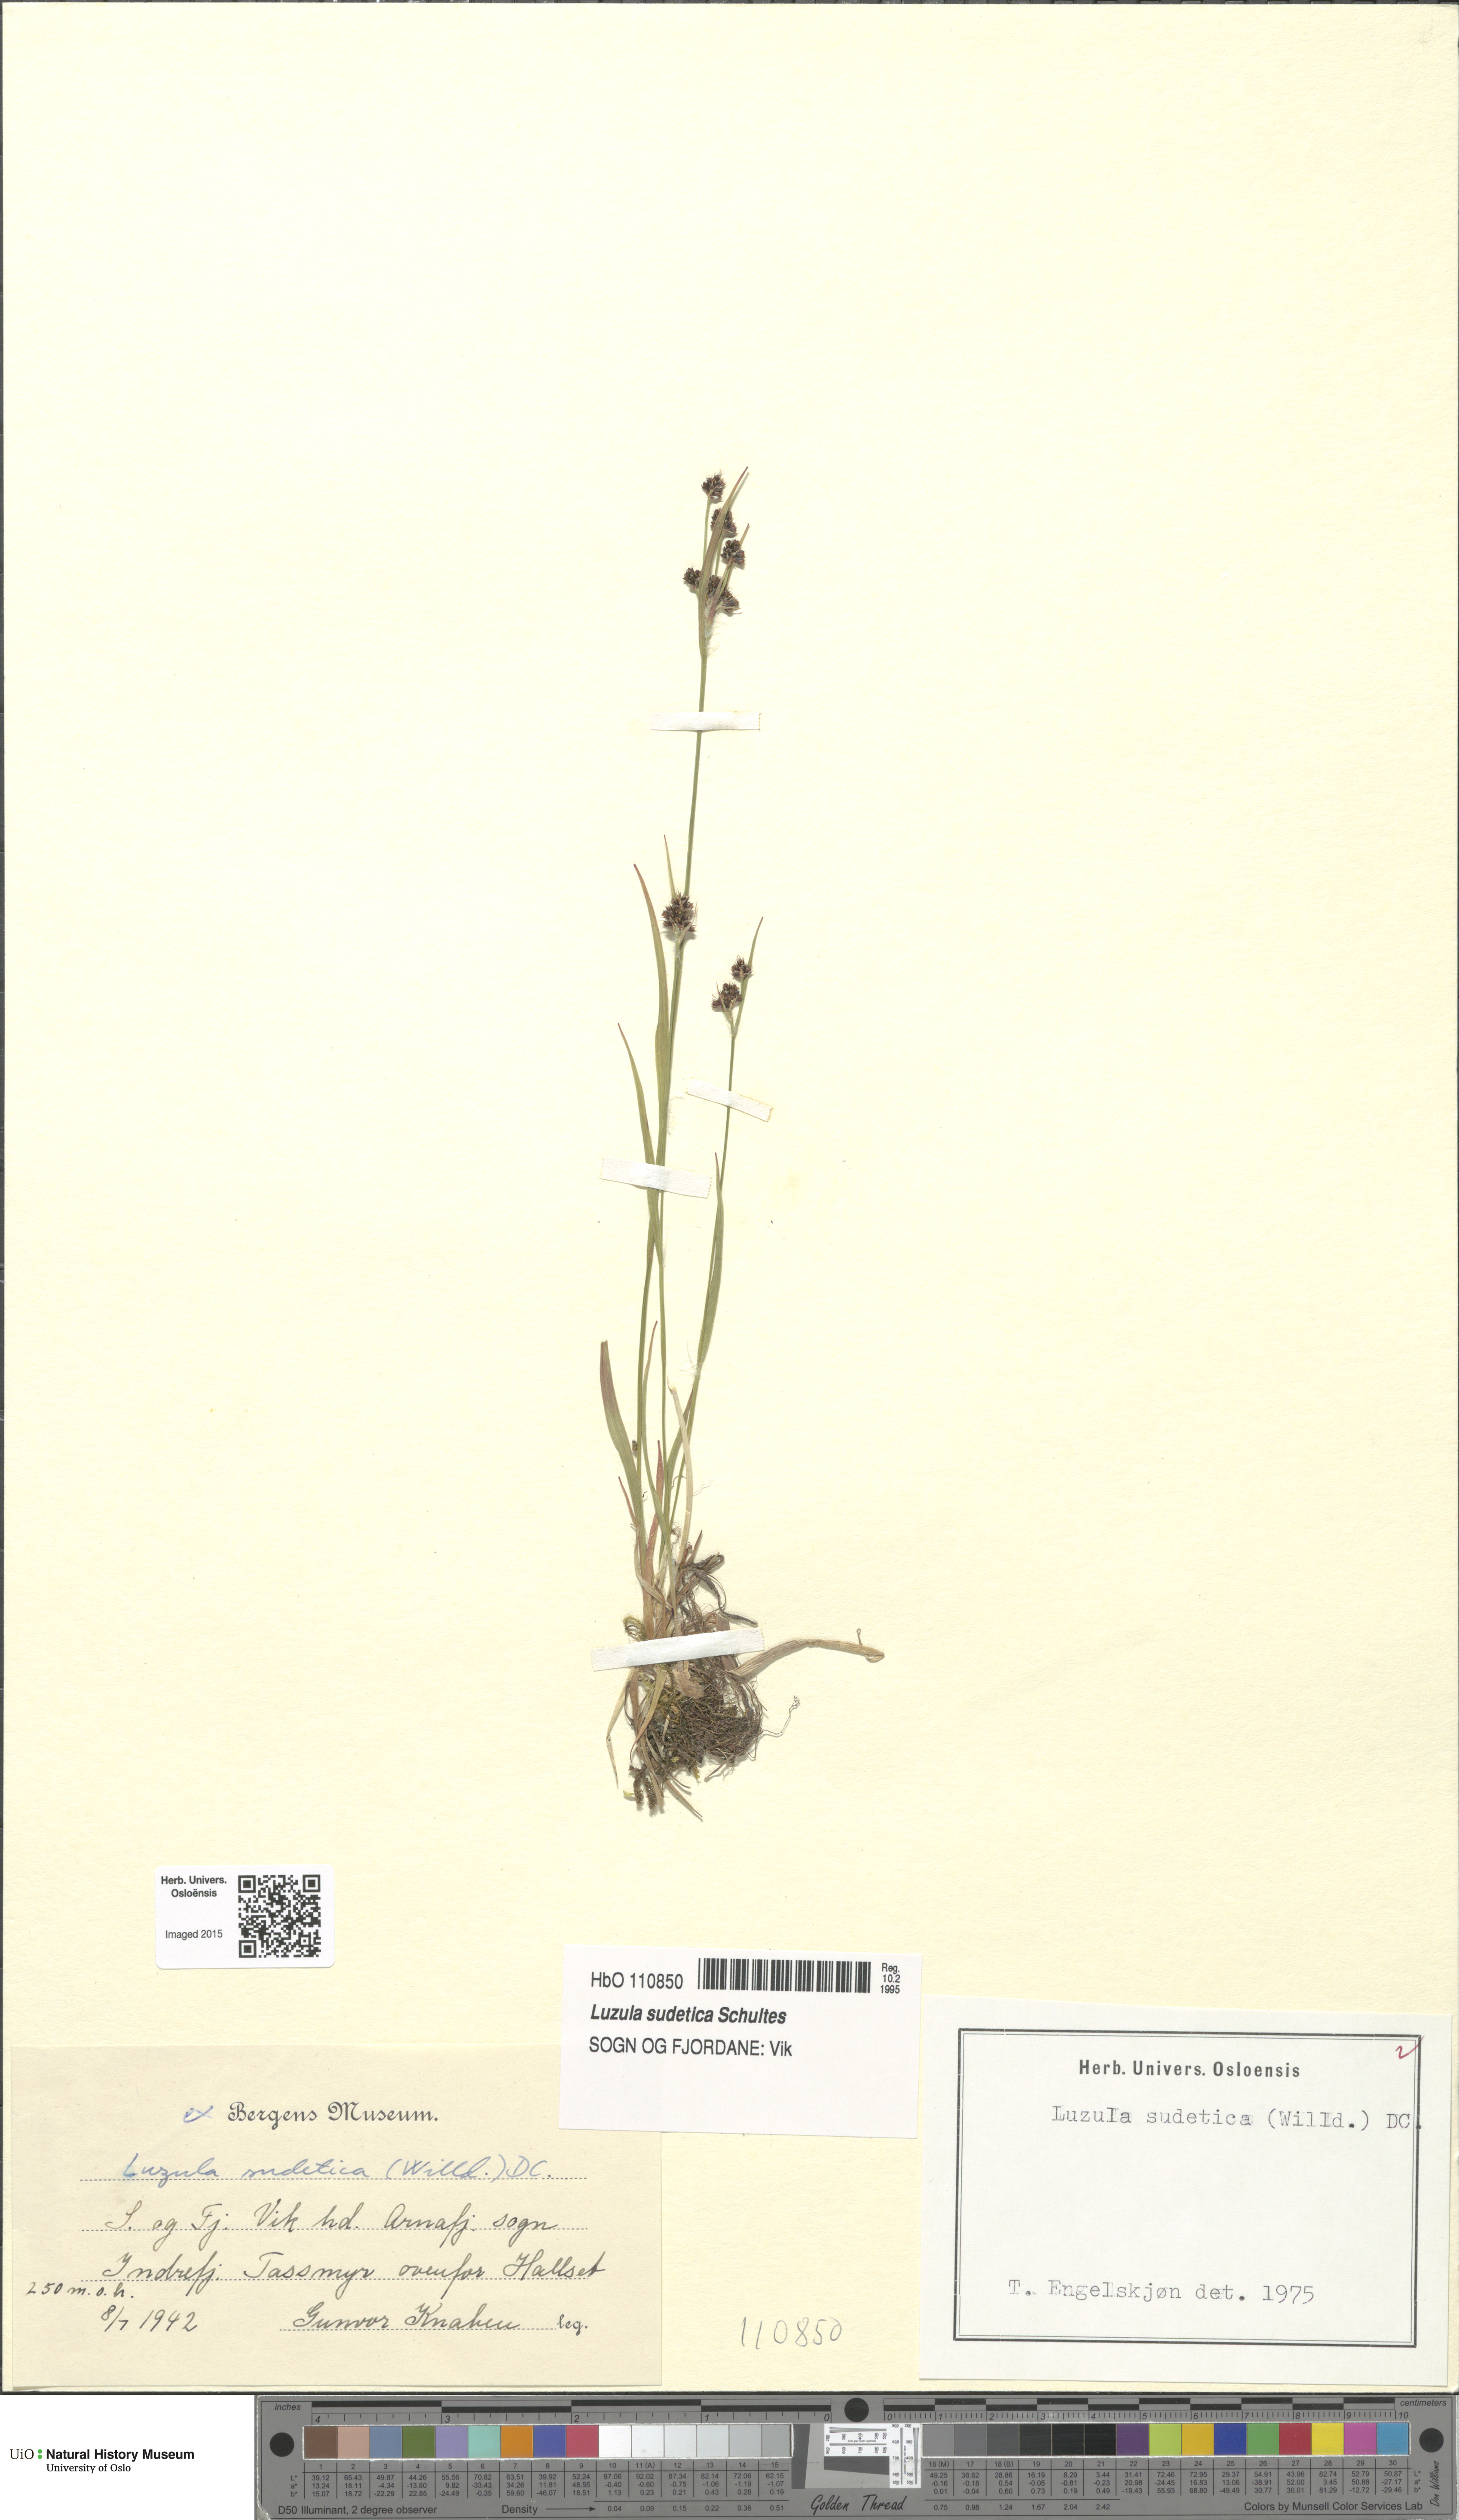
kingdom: Plantae
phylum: Tracheophyta
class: Liliopsida
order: Poales
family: Juncaceae
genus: Luzula
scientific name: Luzula sudetica
